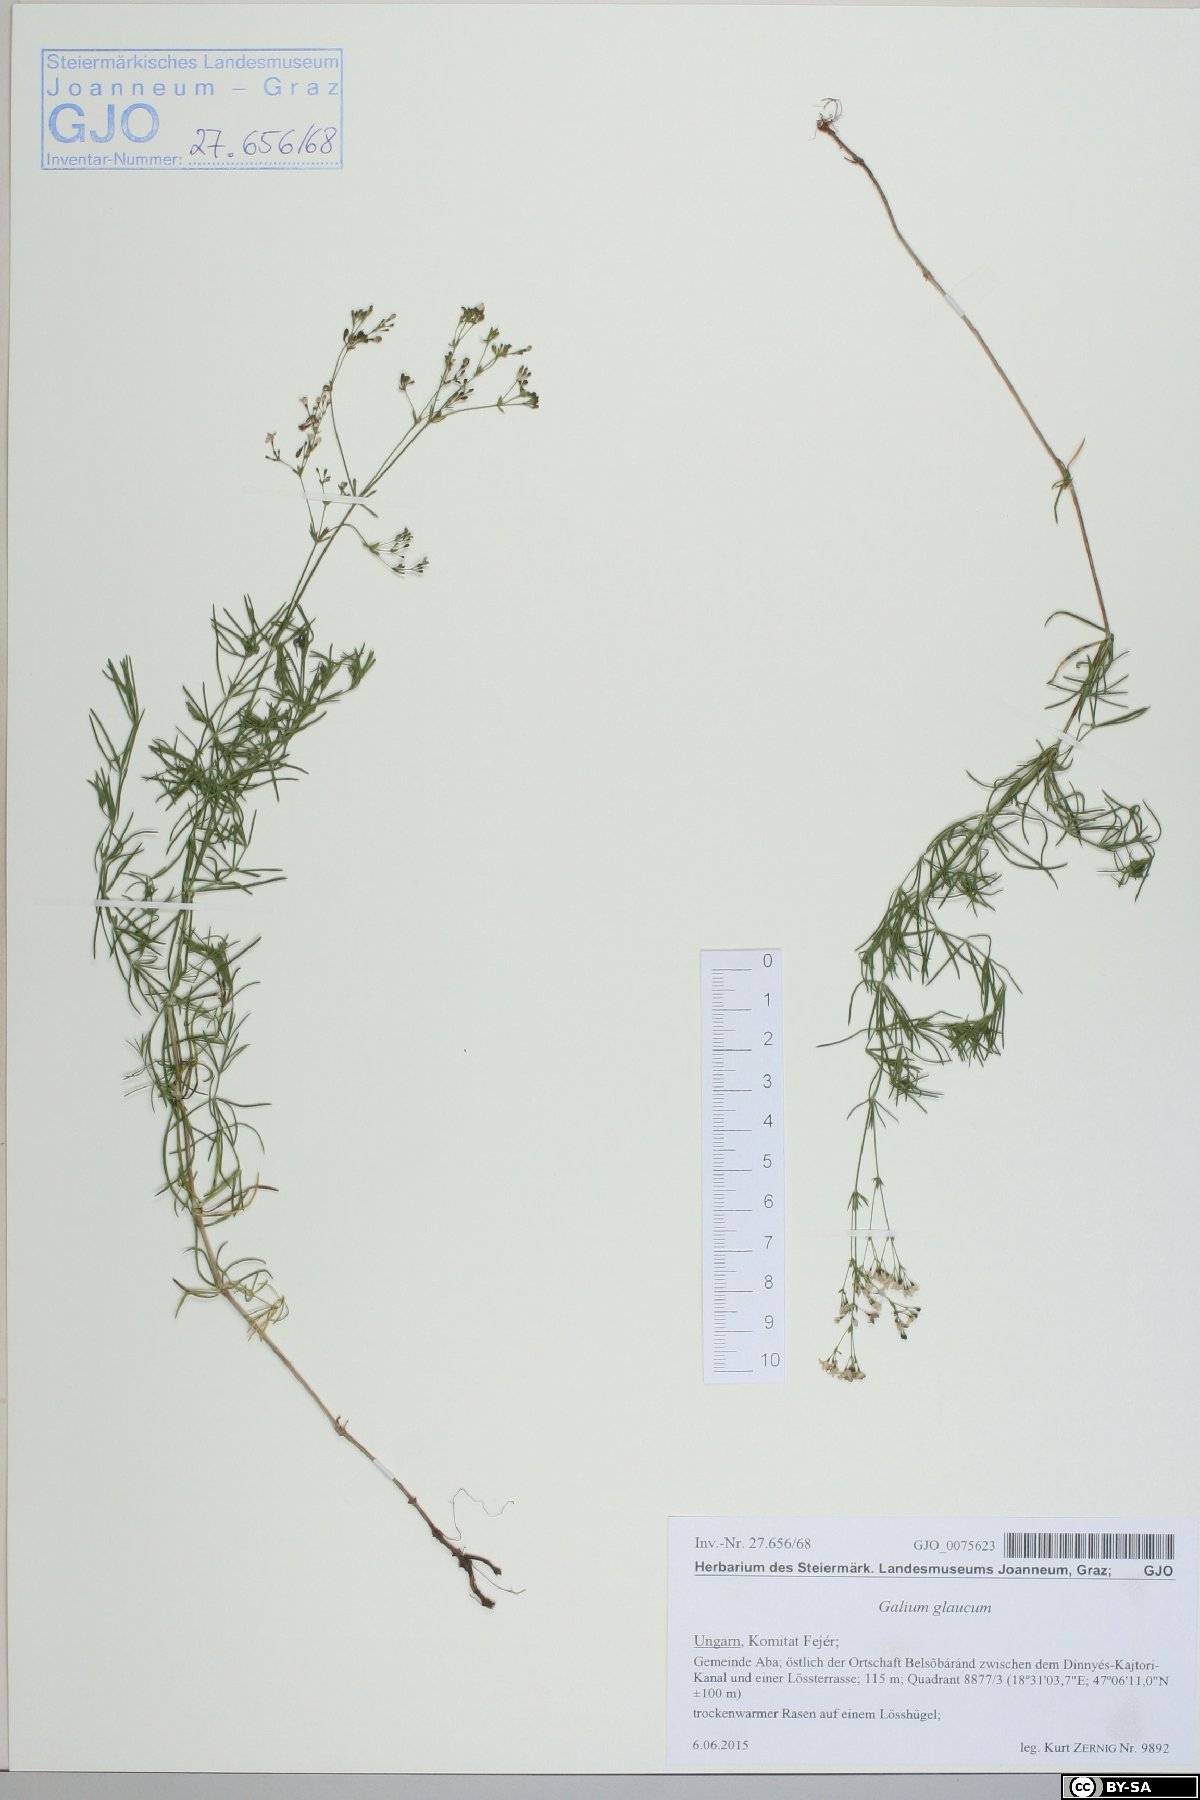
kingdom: Plantae
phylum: Tracheophyta
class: Magnoliopsida
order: Gentianales
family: Rubiaceae
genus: Galium
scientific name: Galium glaucum
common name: Waxy bedstraw
